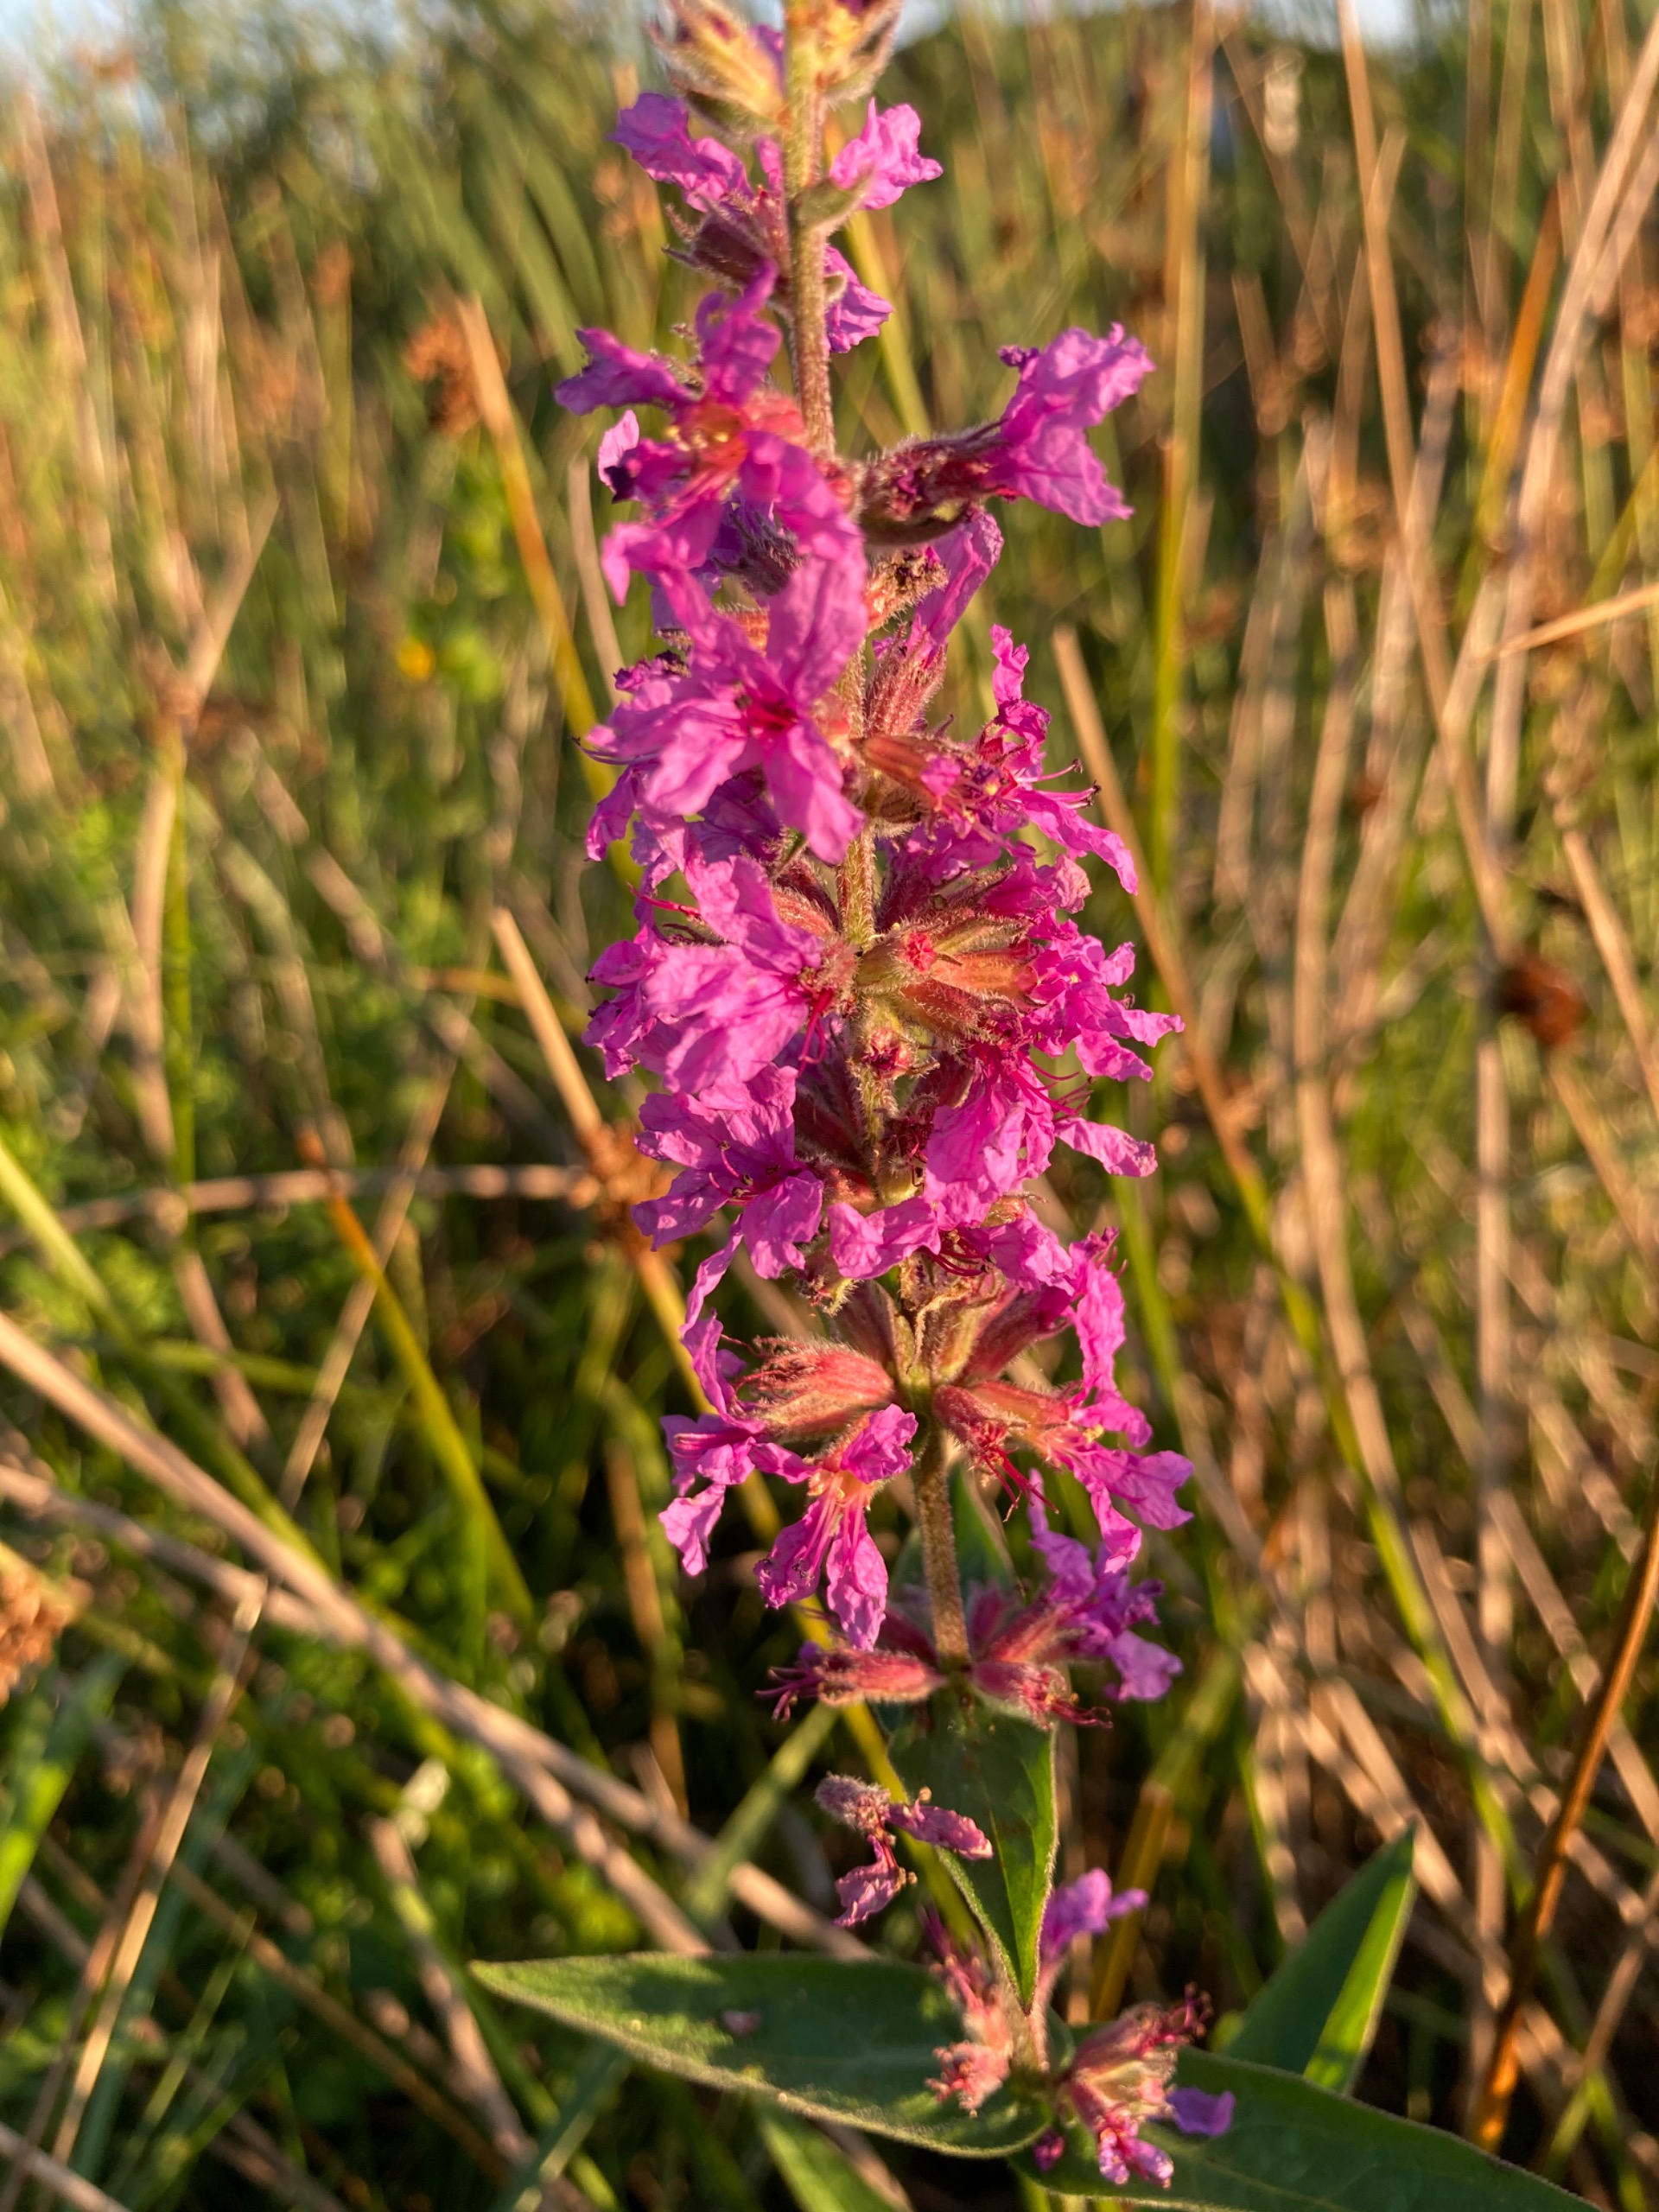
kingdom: Plantae
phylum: Tracheophyta
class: Magnoliopsida
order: Myrtales
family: Lythraceae
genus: Lythrum
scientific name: Lythrum salicaria
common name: Kattehale
